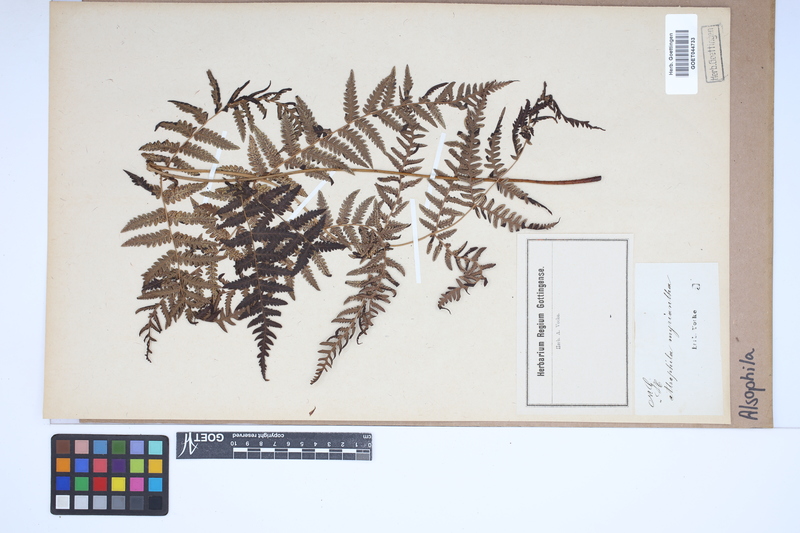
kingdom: Plantae
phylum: Tracheophyta
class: Polypodiopsida
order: Cyatheales
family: Cyatheaceae
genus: Alsophila
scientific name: Alsophila
